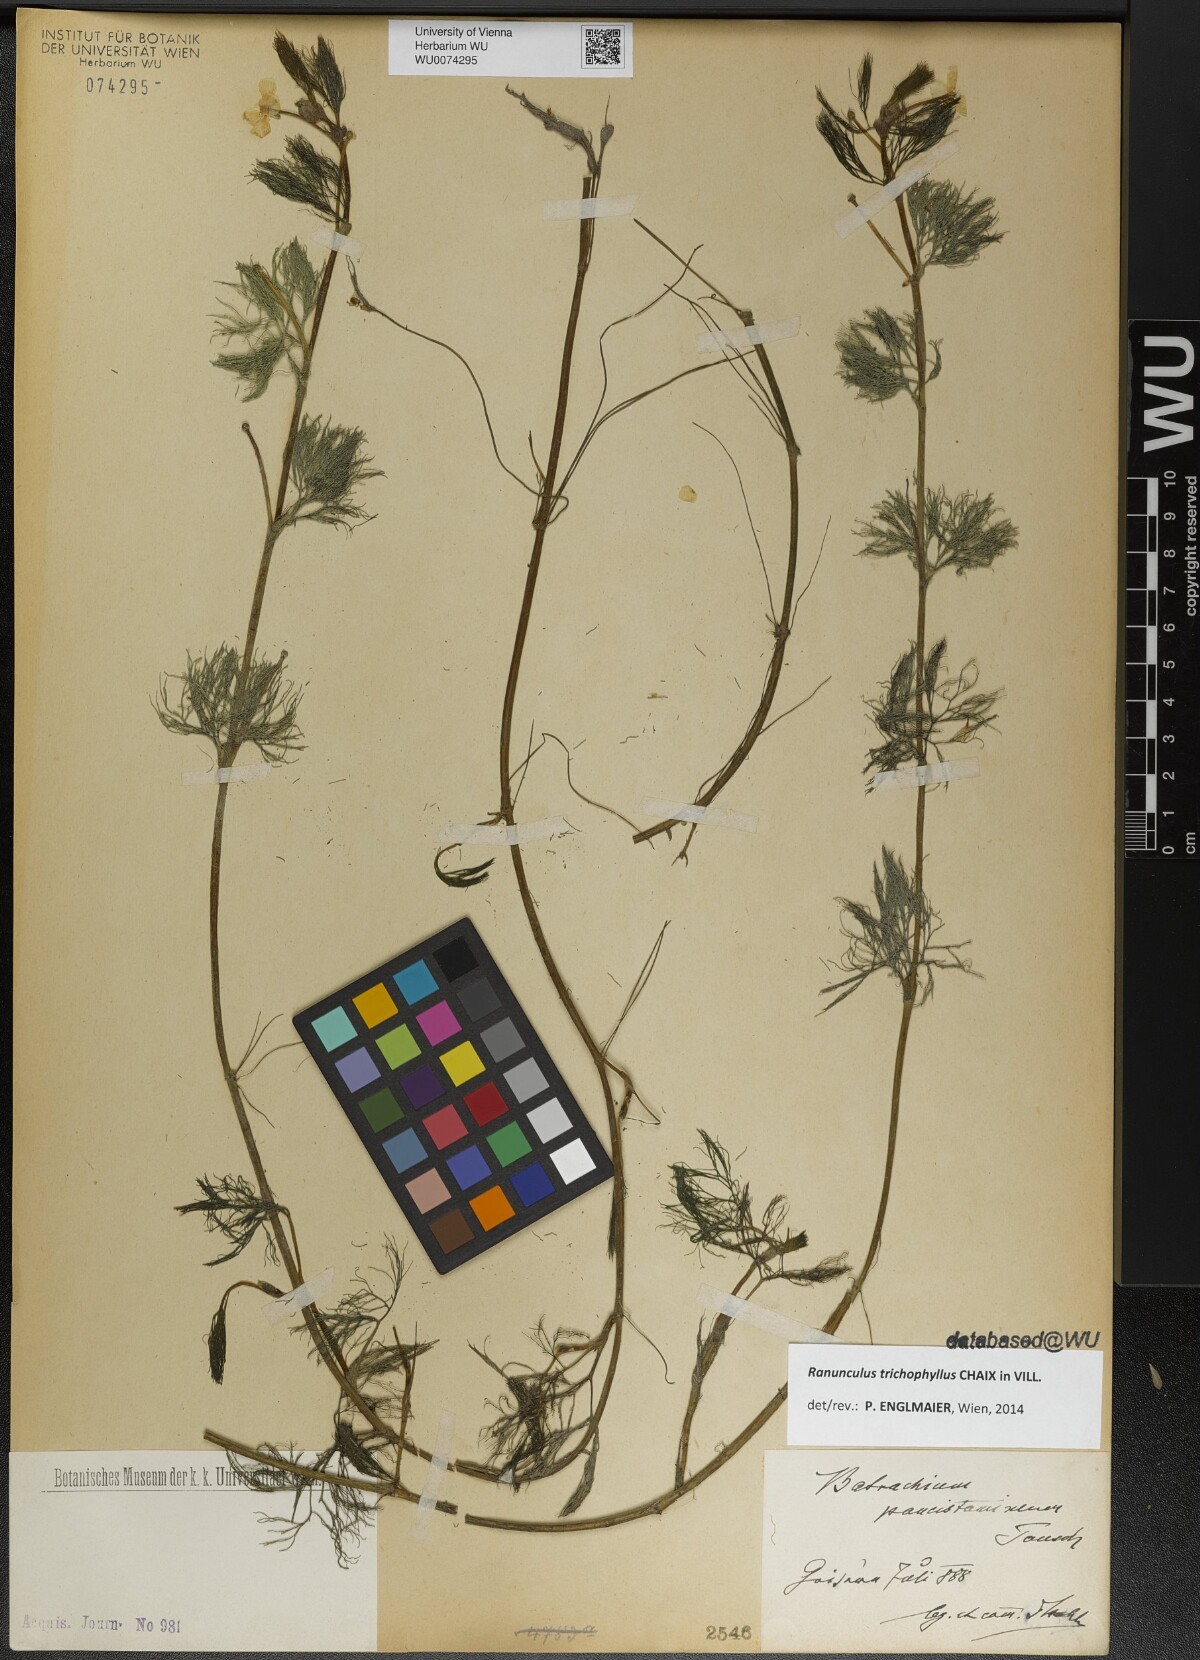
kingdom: Plantae
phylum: Tracheophyta
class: Magnoliopsida
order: Ranunculales
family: Ranunculaceae
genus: Ranunculus
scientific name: Ranunculus trichophyllus
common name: Thread-leaved water-crowfoot
